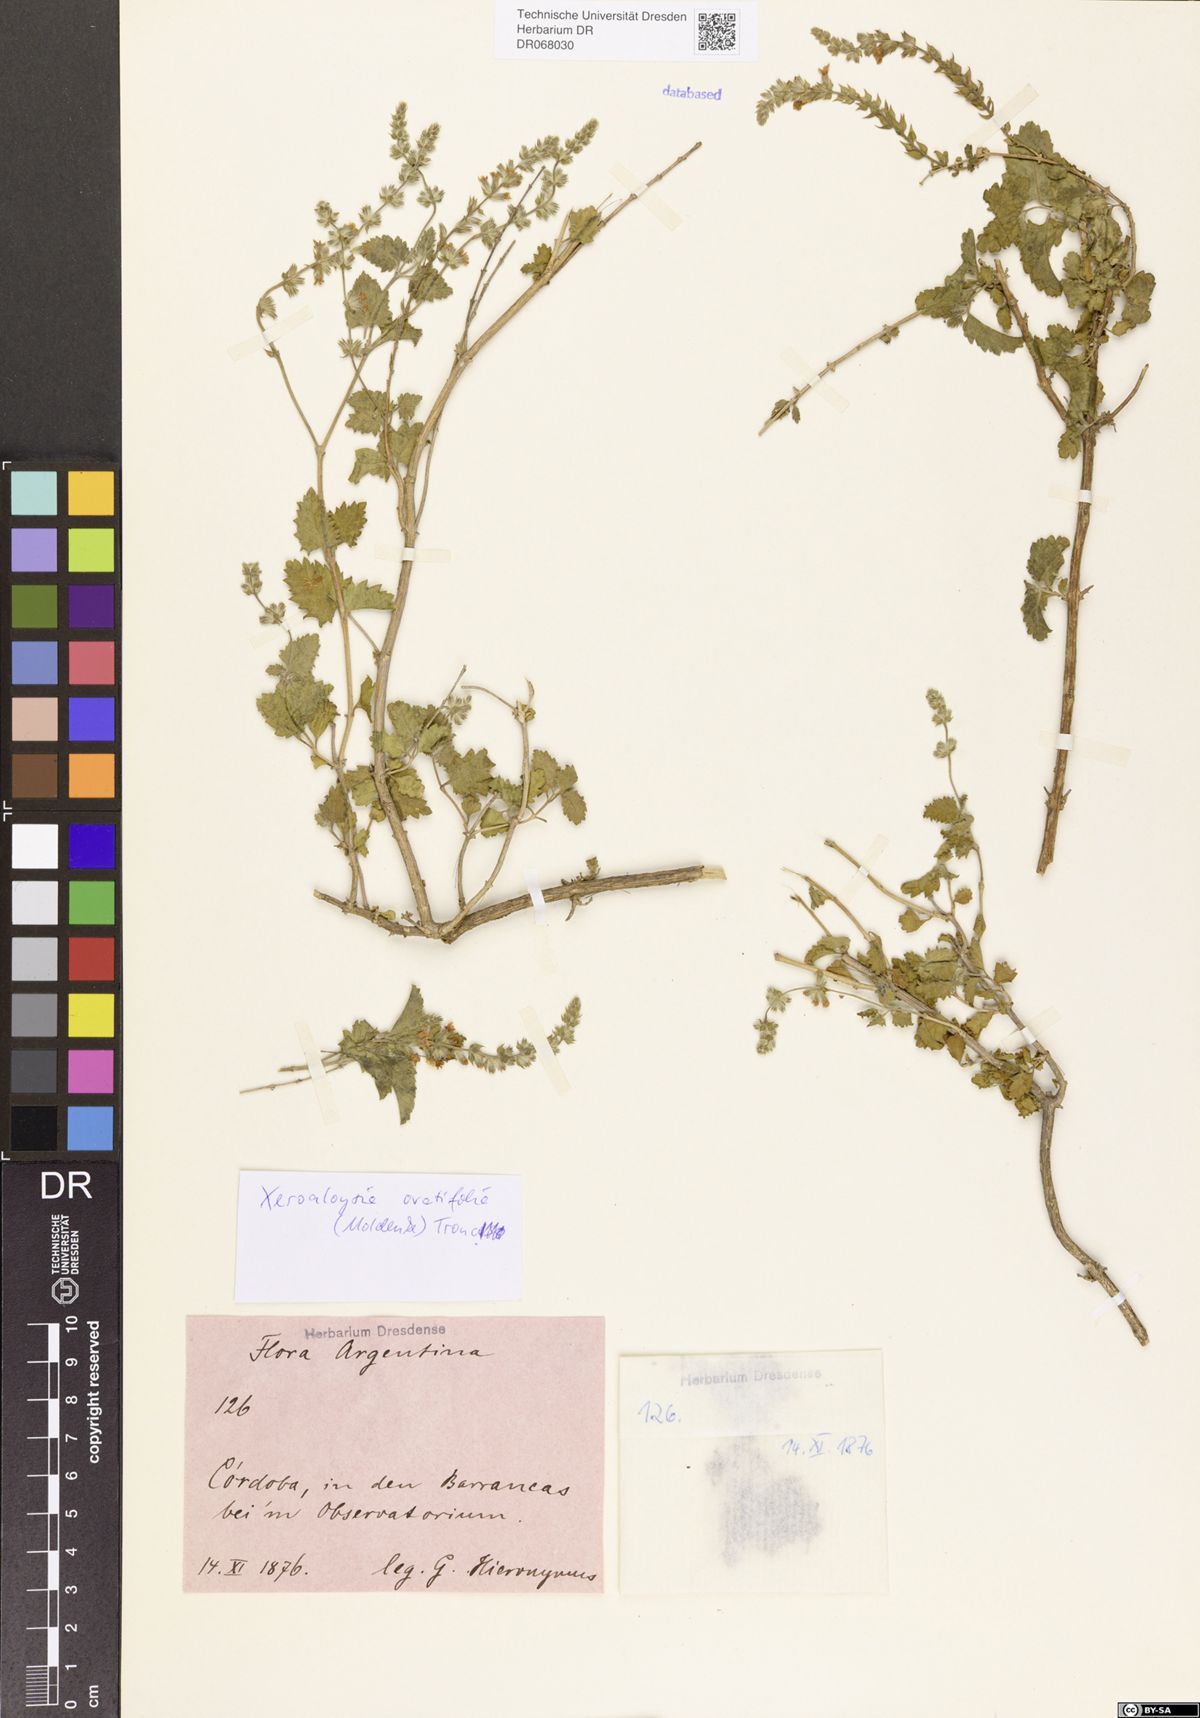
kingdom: Plantae
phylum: Tracheophyta
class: Magnoliopsida
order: Lamiales
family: Verbenaceae
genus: Aloysia
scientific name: Aloysia ovatifolia
